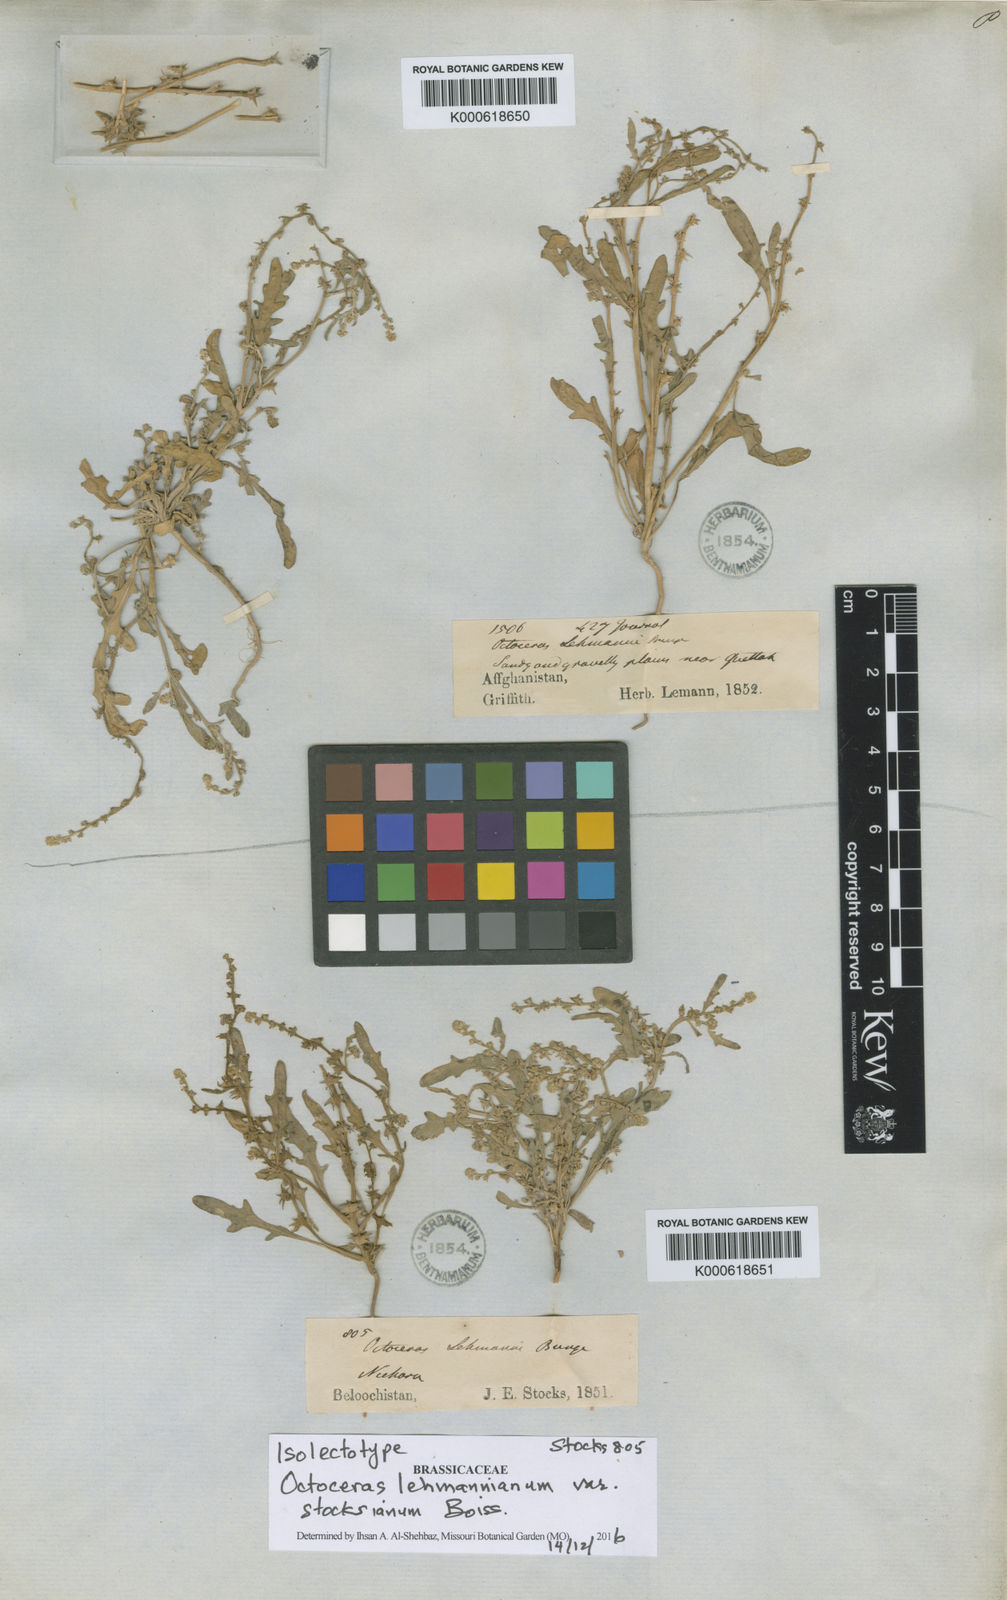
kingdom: Plantae
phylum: Tracheophyta
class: Magnoliopsida
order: Brassicales
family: Brassicaceae
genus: Octoceras
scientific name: Octoceras lehmannianum
